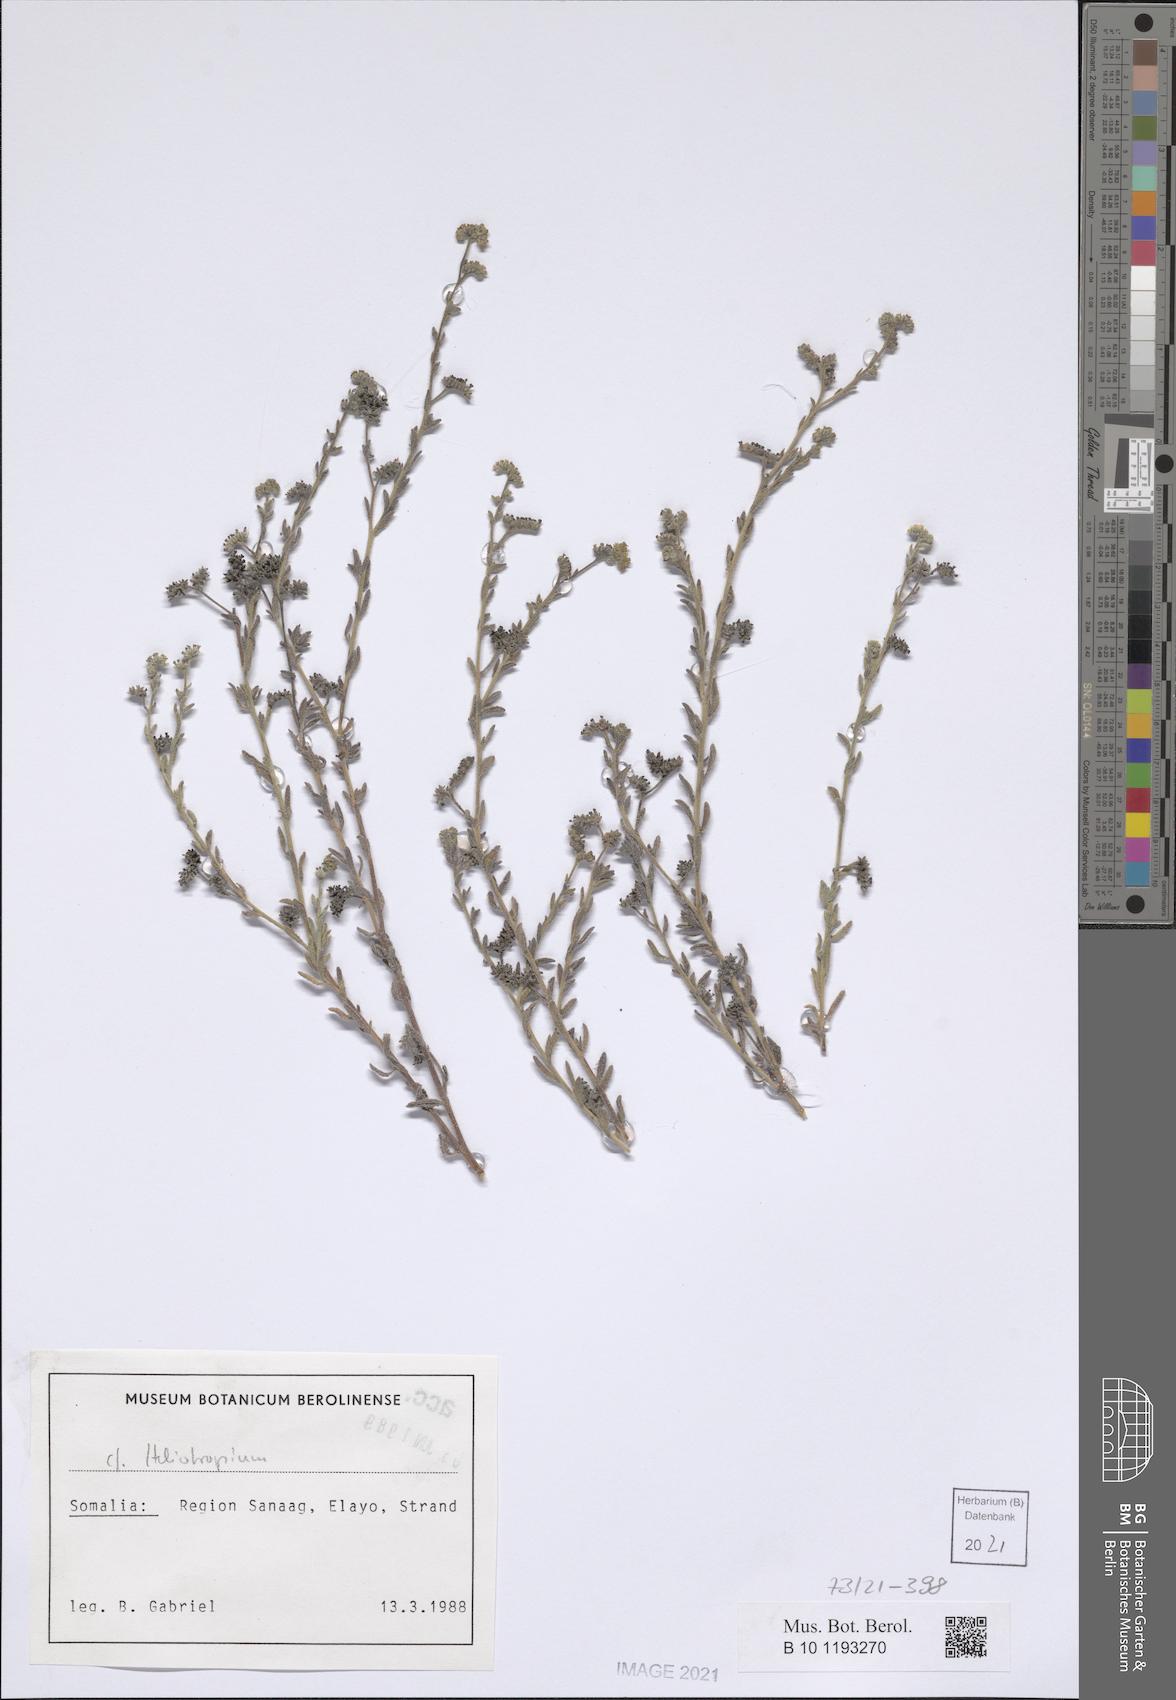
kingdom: Plantae
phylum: Tracheophyta
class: Magnoliopsida
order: Boraginales
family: Heliotropiaceae
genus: Heliotropium
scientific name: Heliotropium bacciferum
